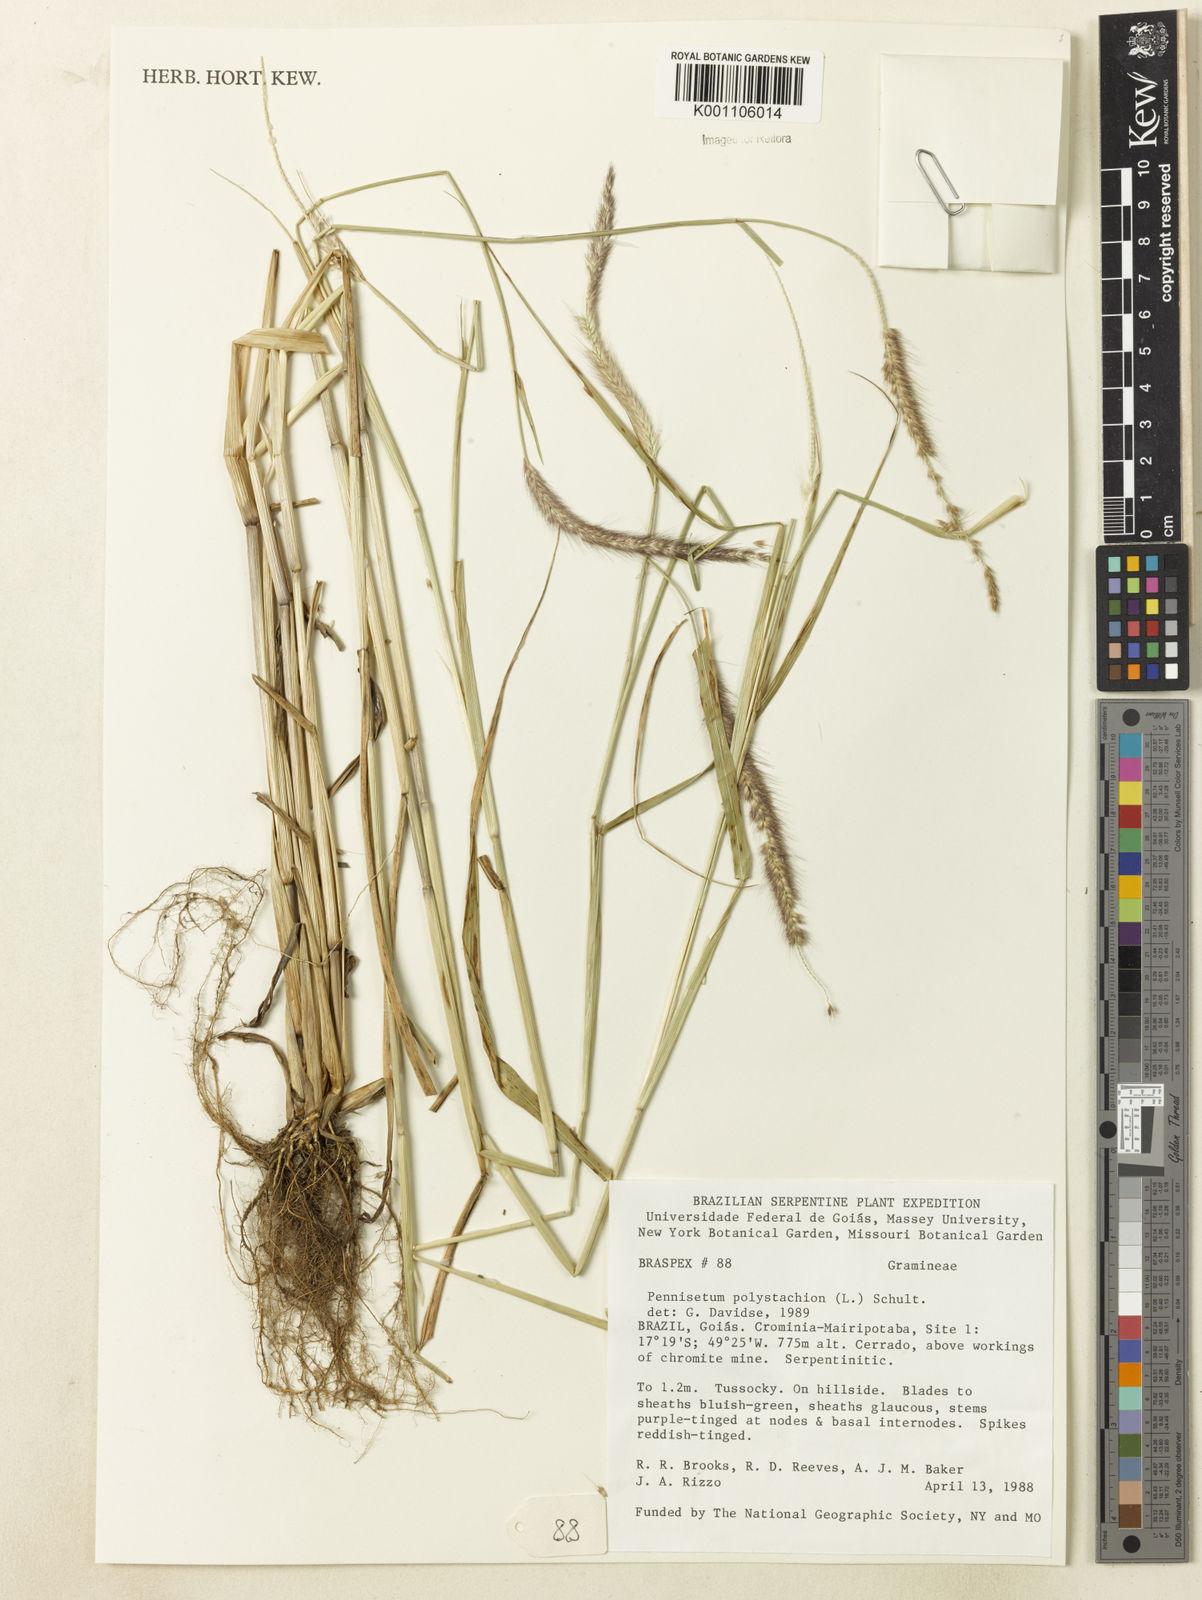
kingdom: Plantae
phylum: Tracheophyta
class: Liliopsida
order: Poales
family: Poaceae
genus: Setaria
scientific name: Setaria parviflora
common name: Knotroot bristle-grass
